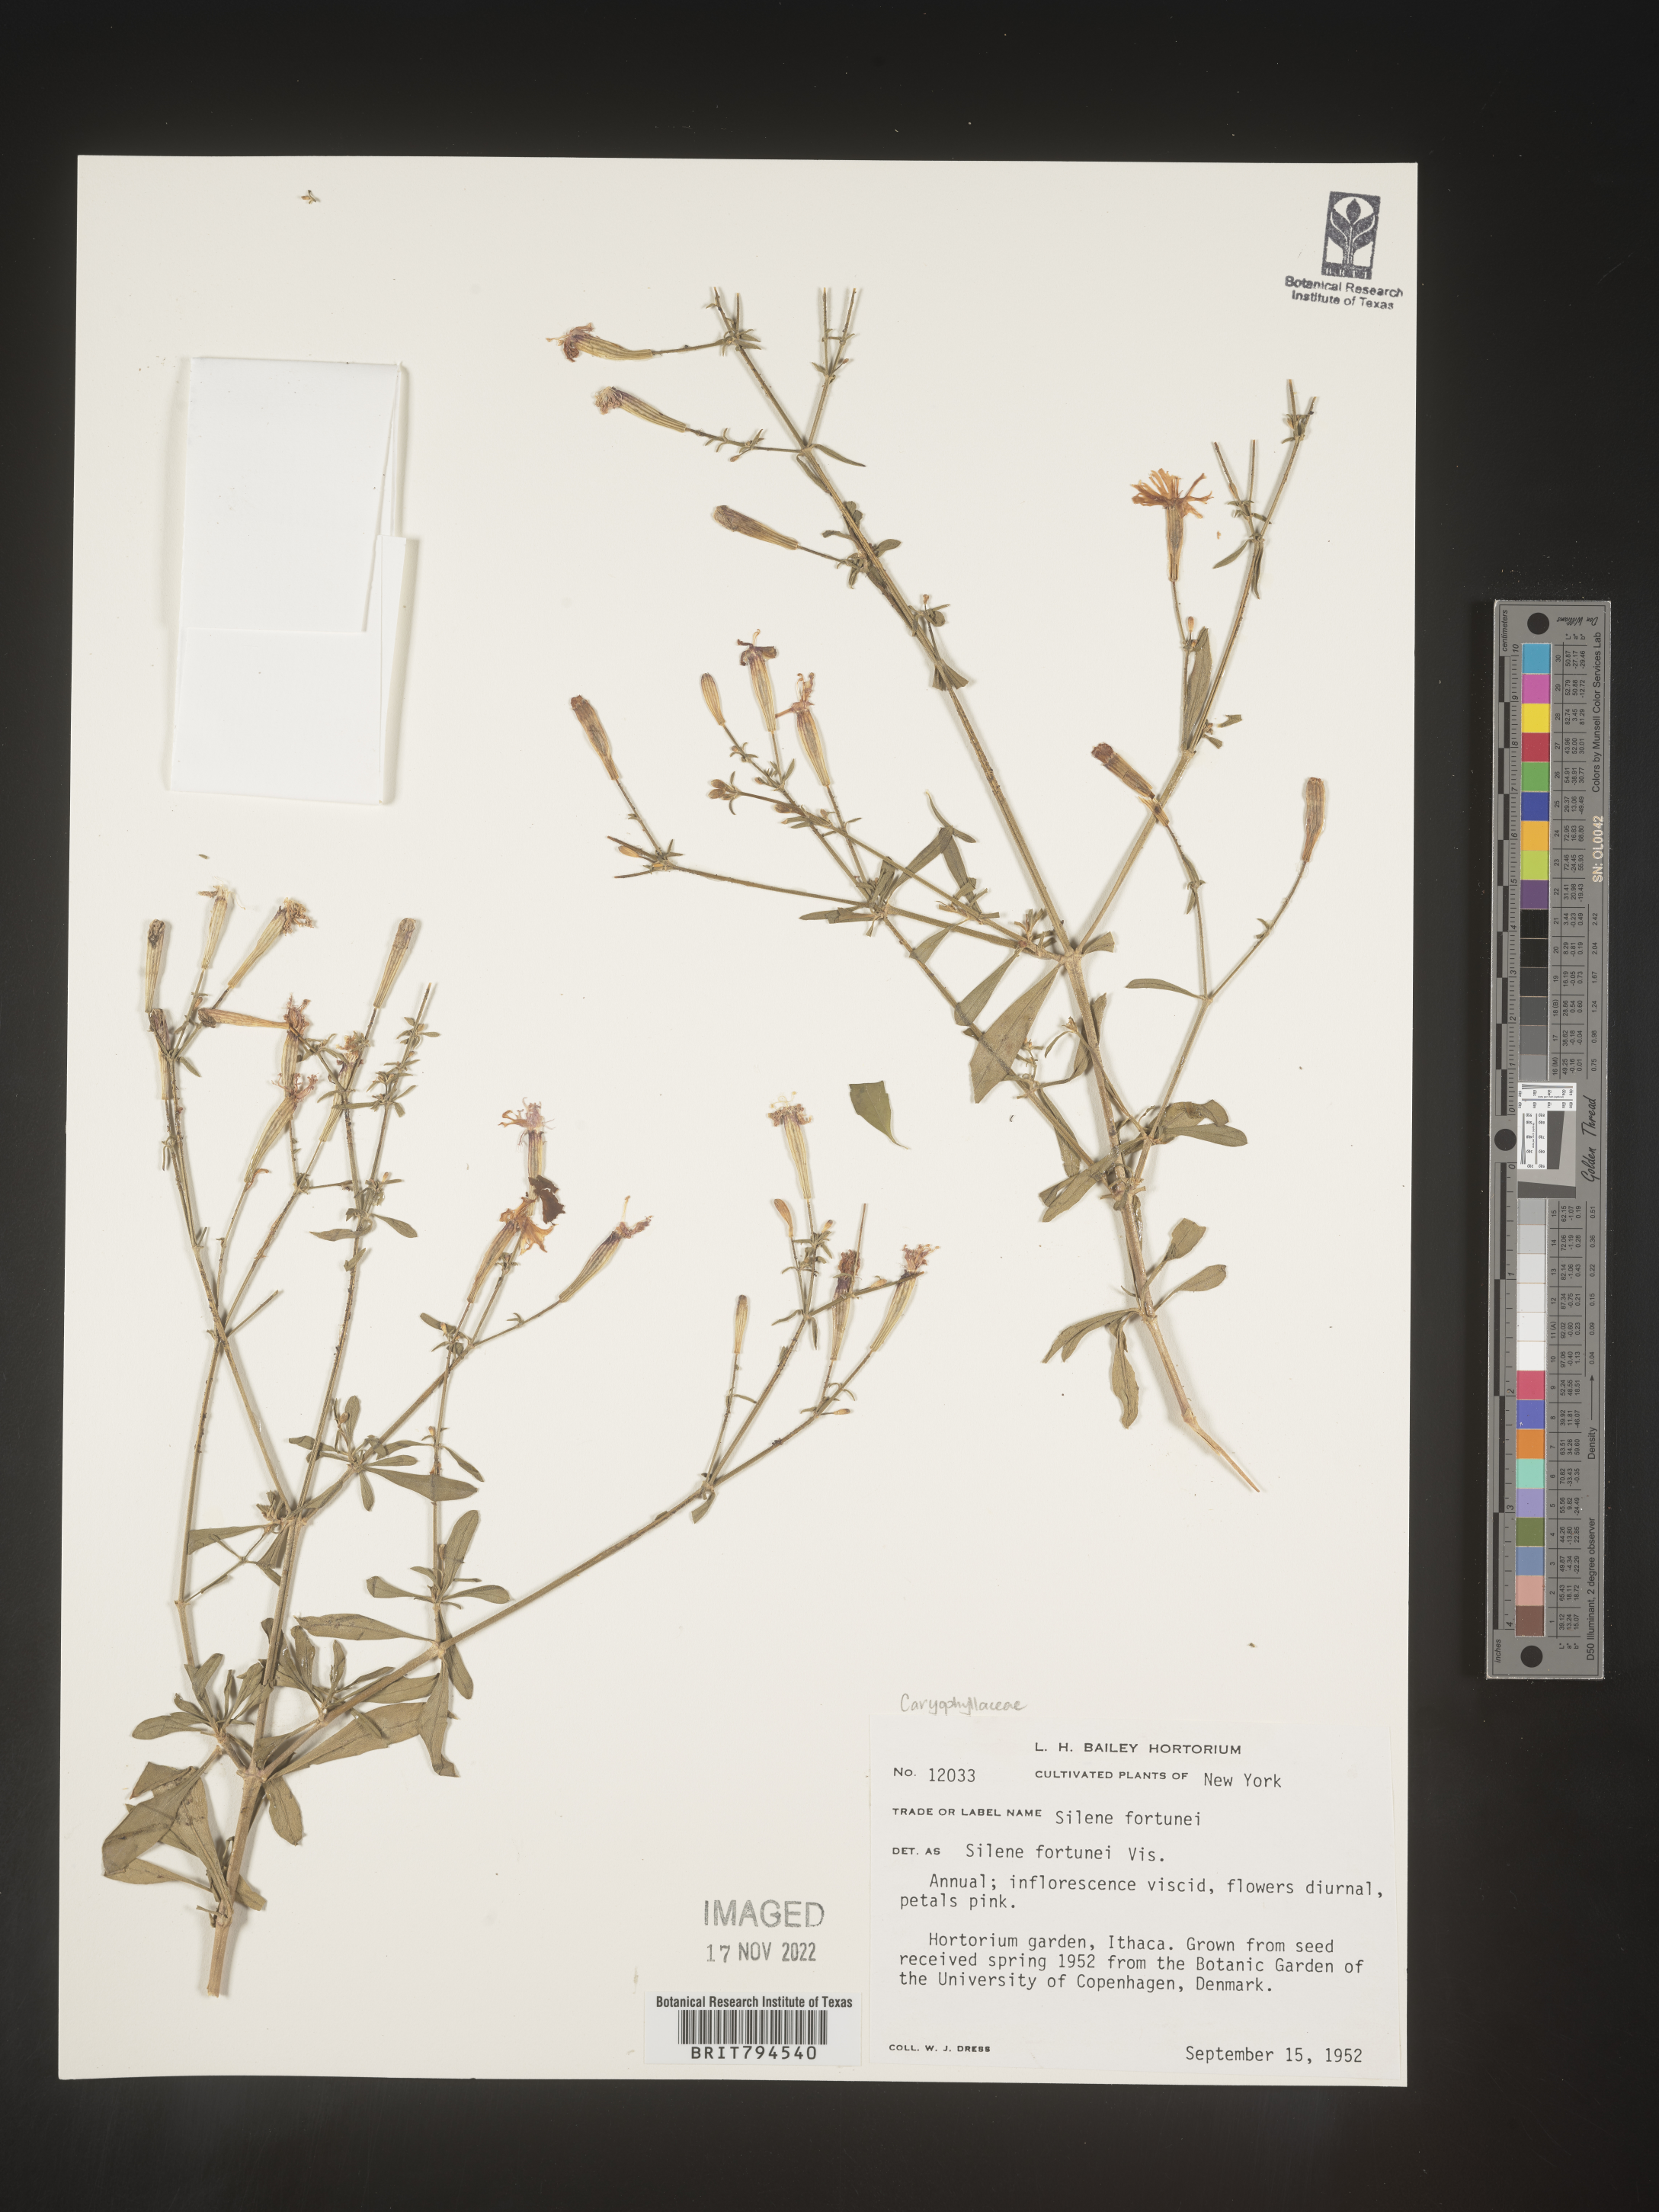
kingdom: Plantae
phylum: Tracheophyta
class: Magnoliopsida
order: Caryophyllales
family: Caryophyllaceae
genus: Silene
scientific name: Silene fortunei
